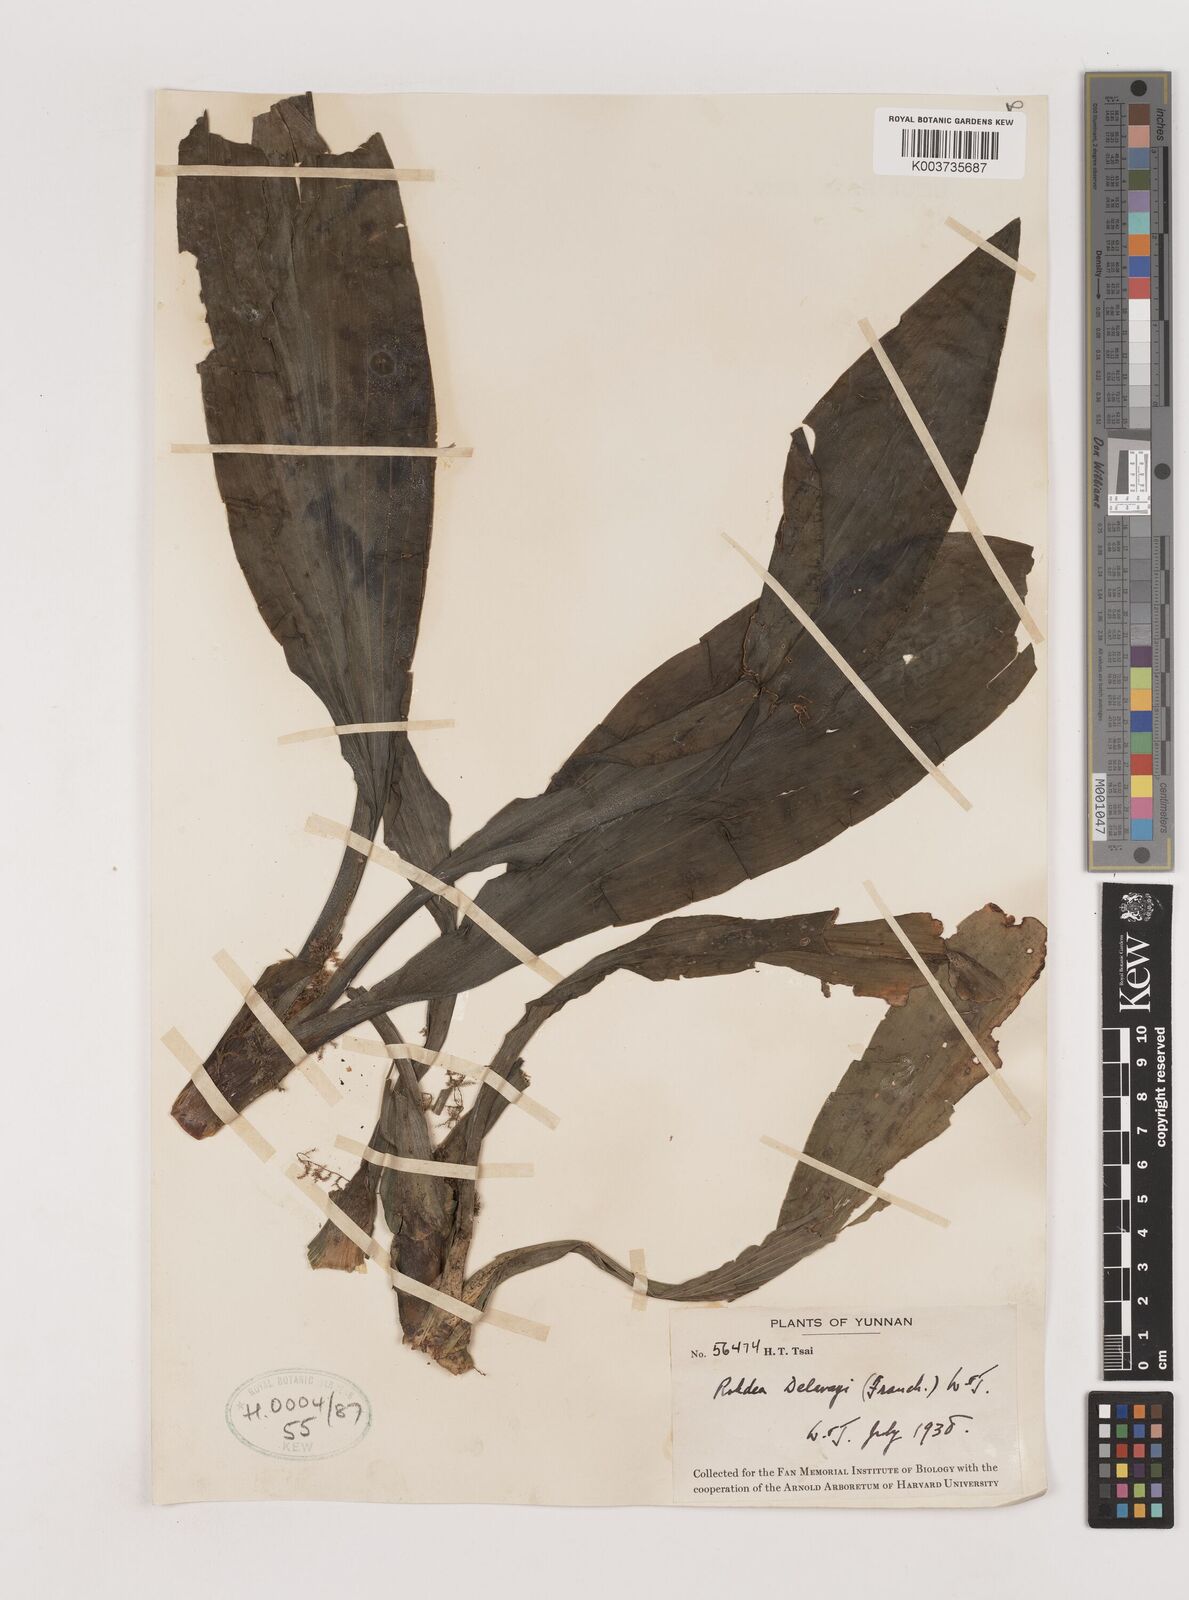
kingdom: Plantae
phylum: Tracheophyta
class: Liliopsida
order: Asparagales
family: Asparagaceae
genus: Rohdea
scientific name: Rohdea delavayi
